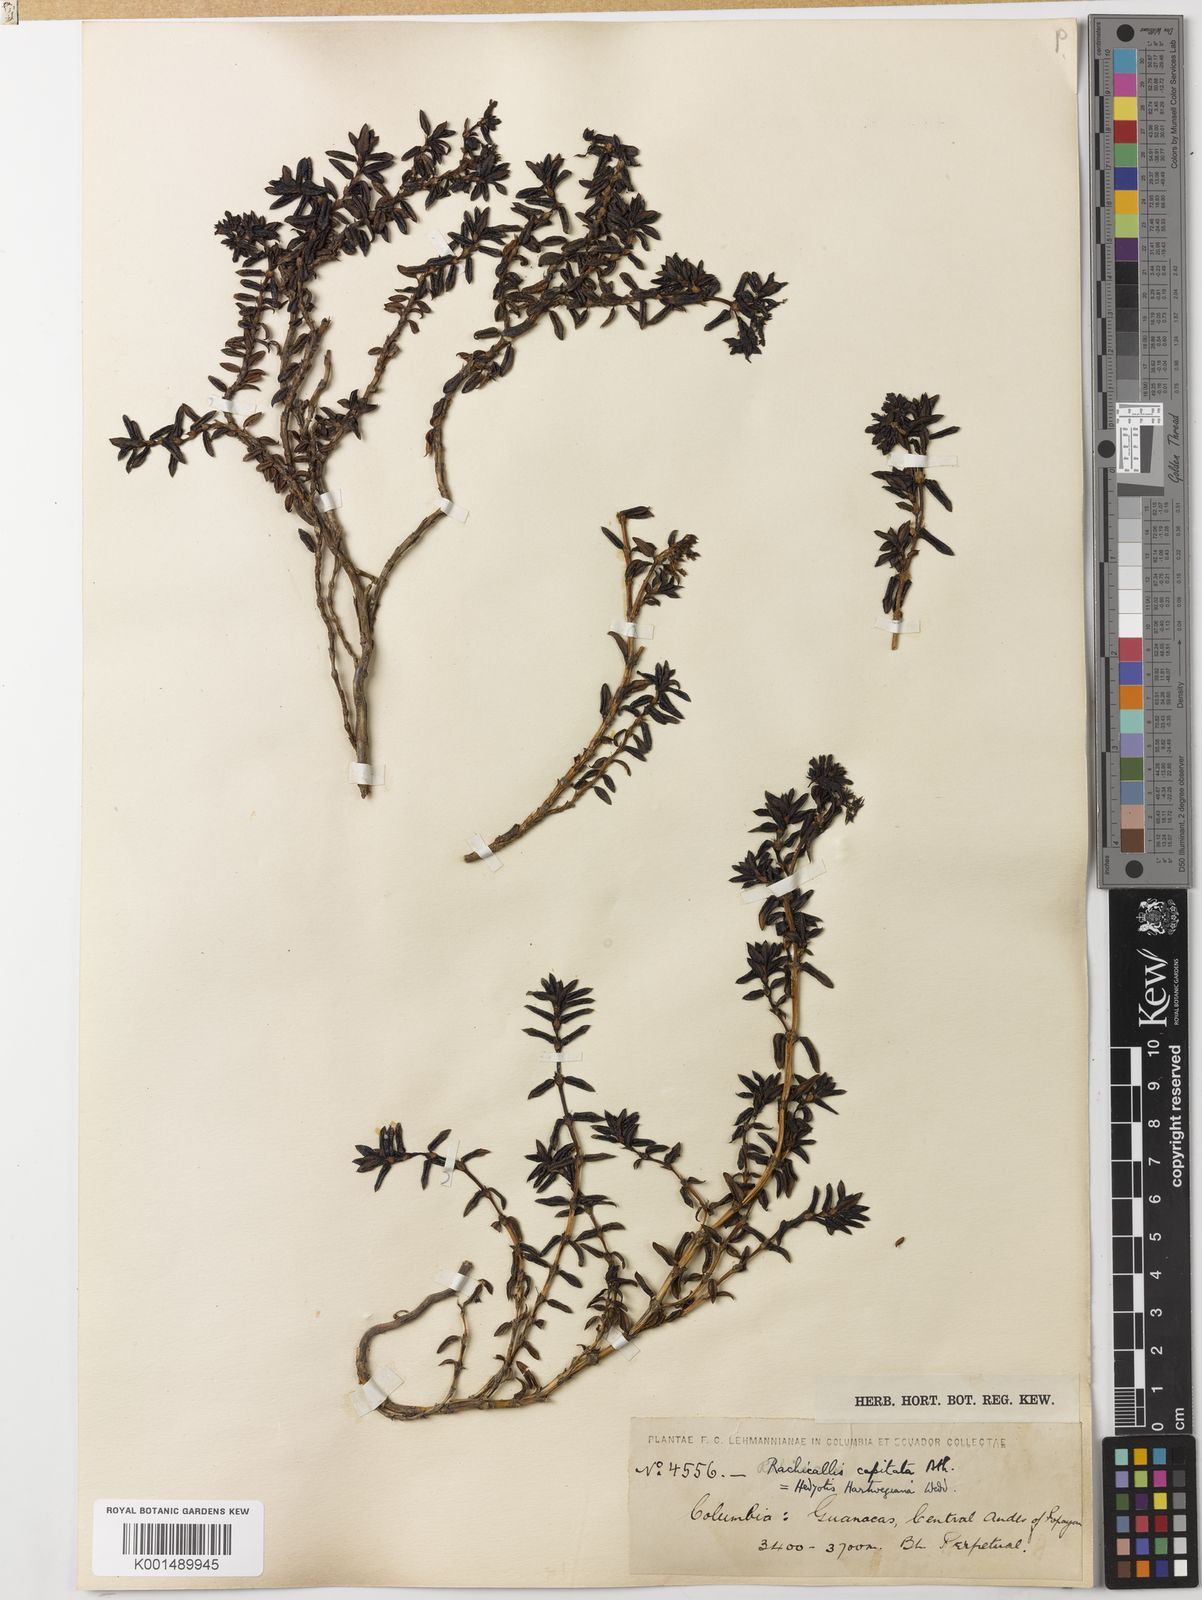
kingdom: Plantae
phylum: Tracheophyta
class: Magnoliopsida
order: Gentianales
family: Rubiaceae
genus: Arcytophyllum
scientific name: Arcytophyllum capitatum
